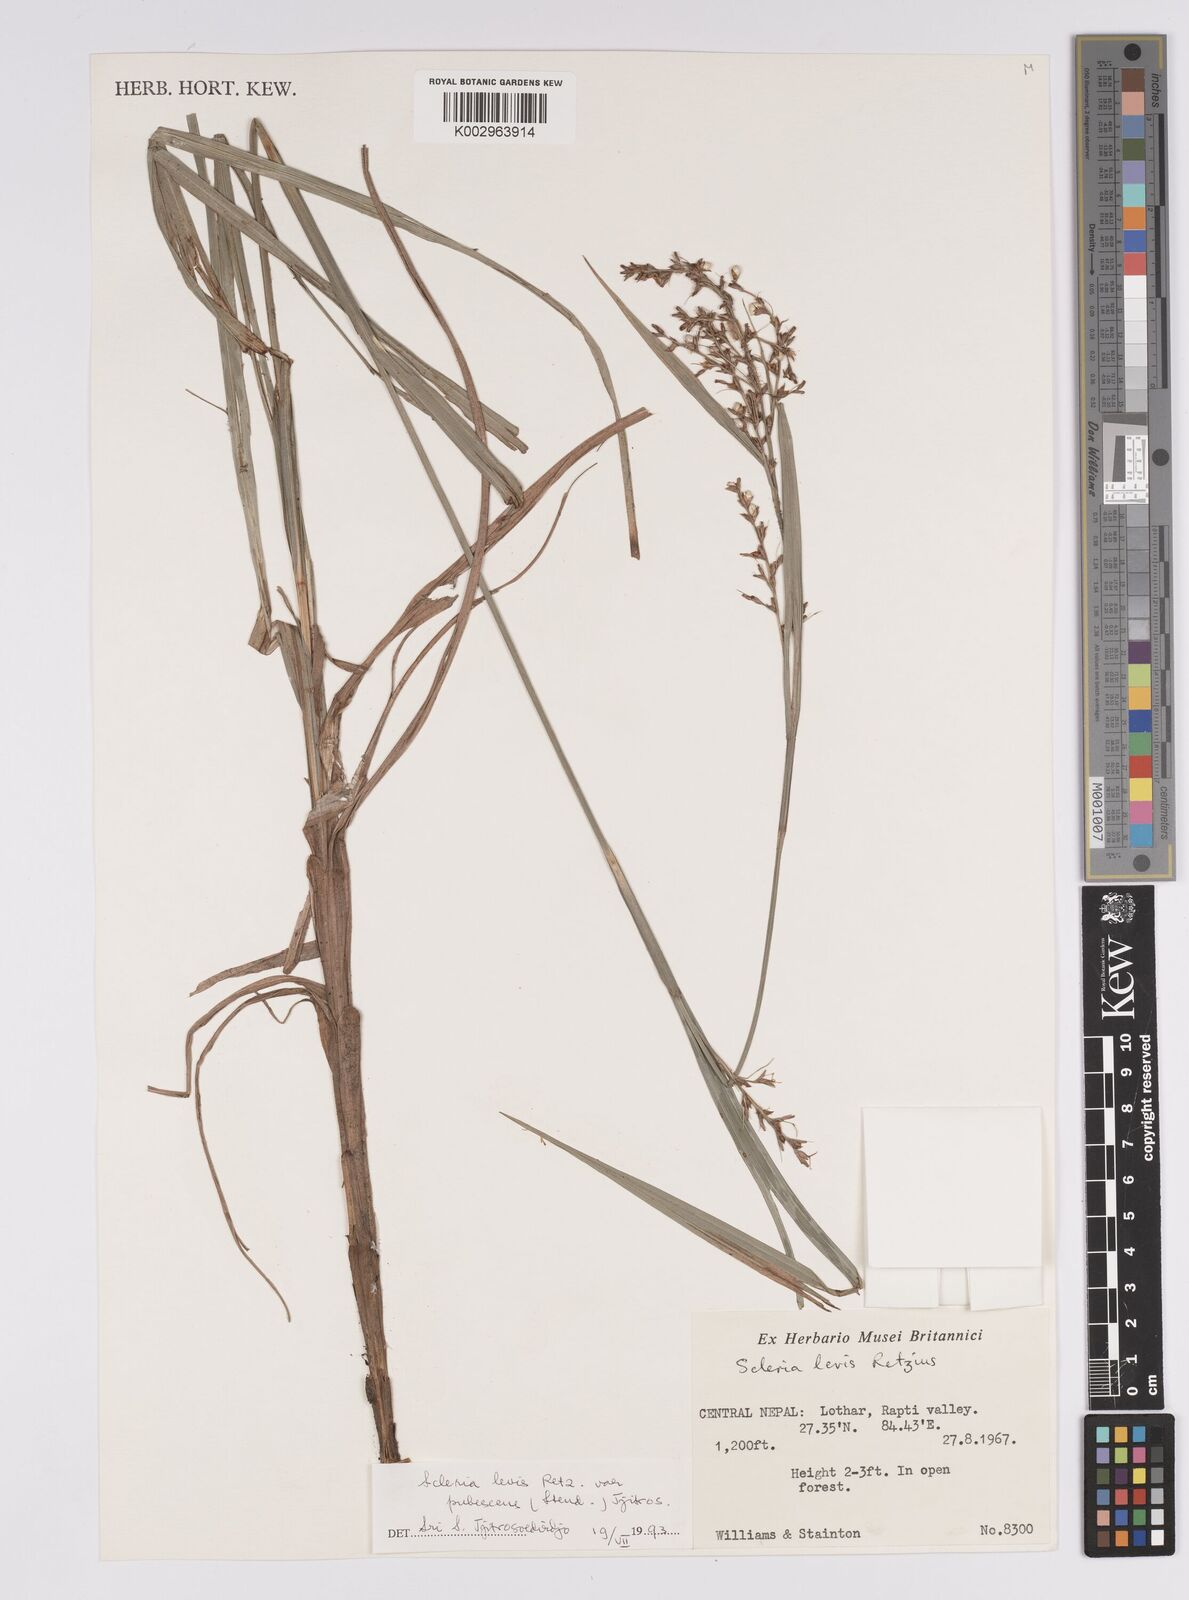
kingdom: Plantae
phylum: Tracheophyta
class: Liliopsida
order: Poales
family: Cyperaceae
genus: Scleria
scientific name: Scleria levis
